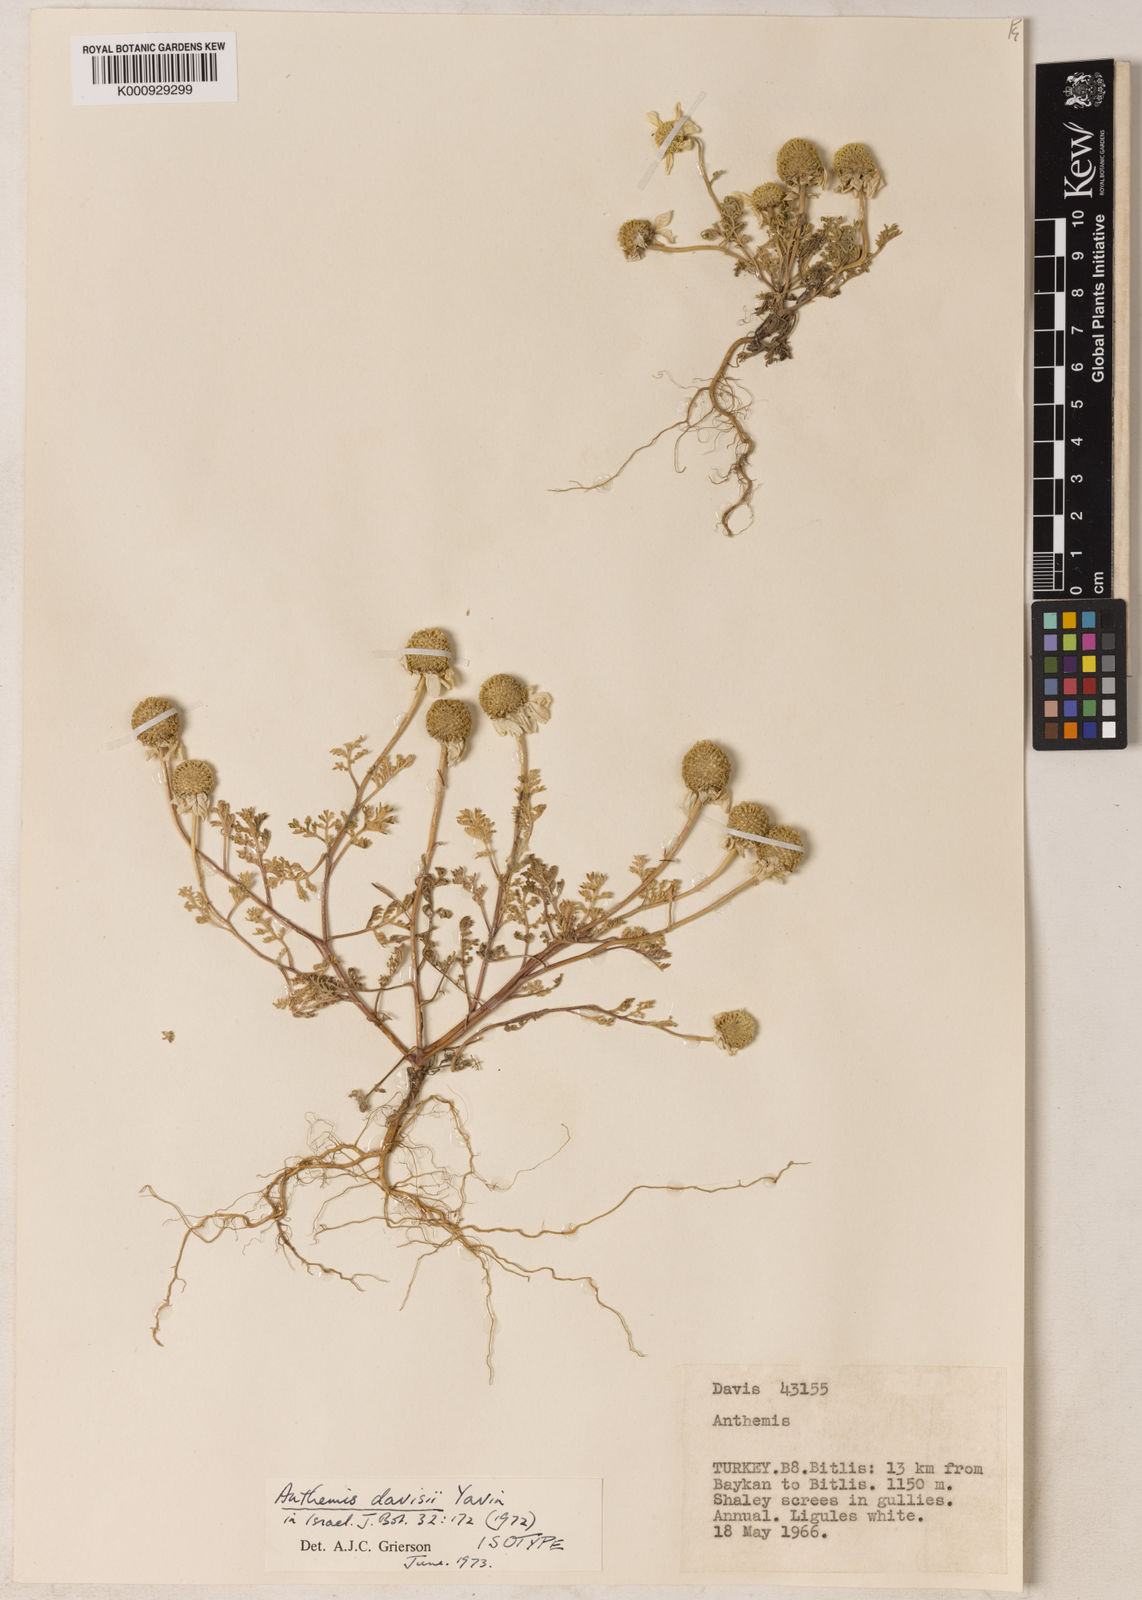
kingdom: Plantae
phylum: Tracheophyta
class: Magnoliopsida
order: Asterales
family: Asteraceae
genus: Anthemis
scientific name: Anthemis davisii
